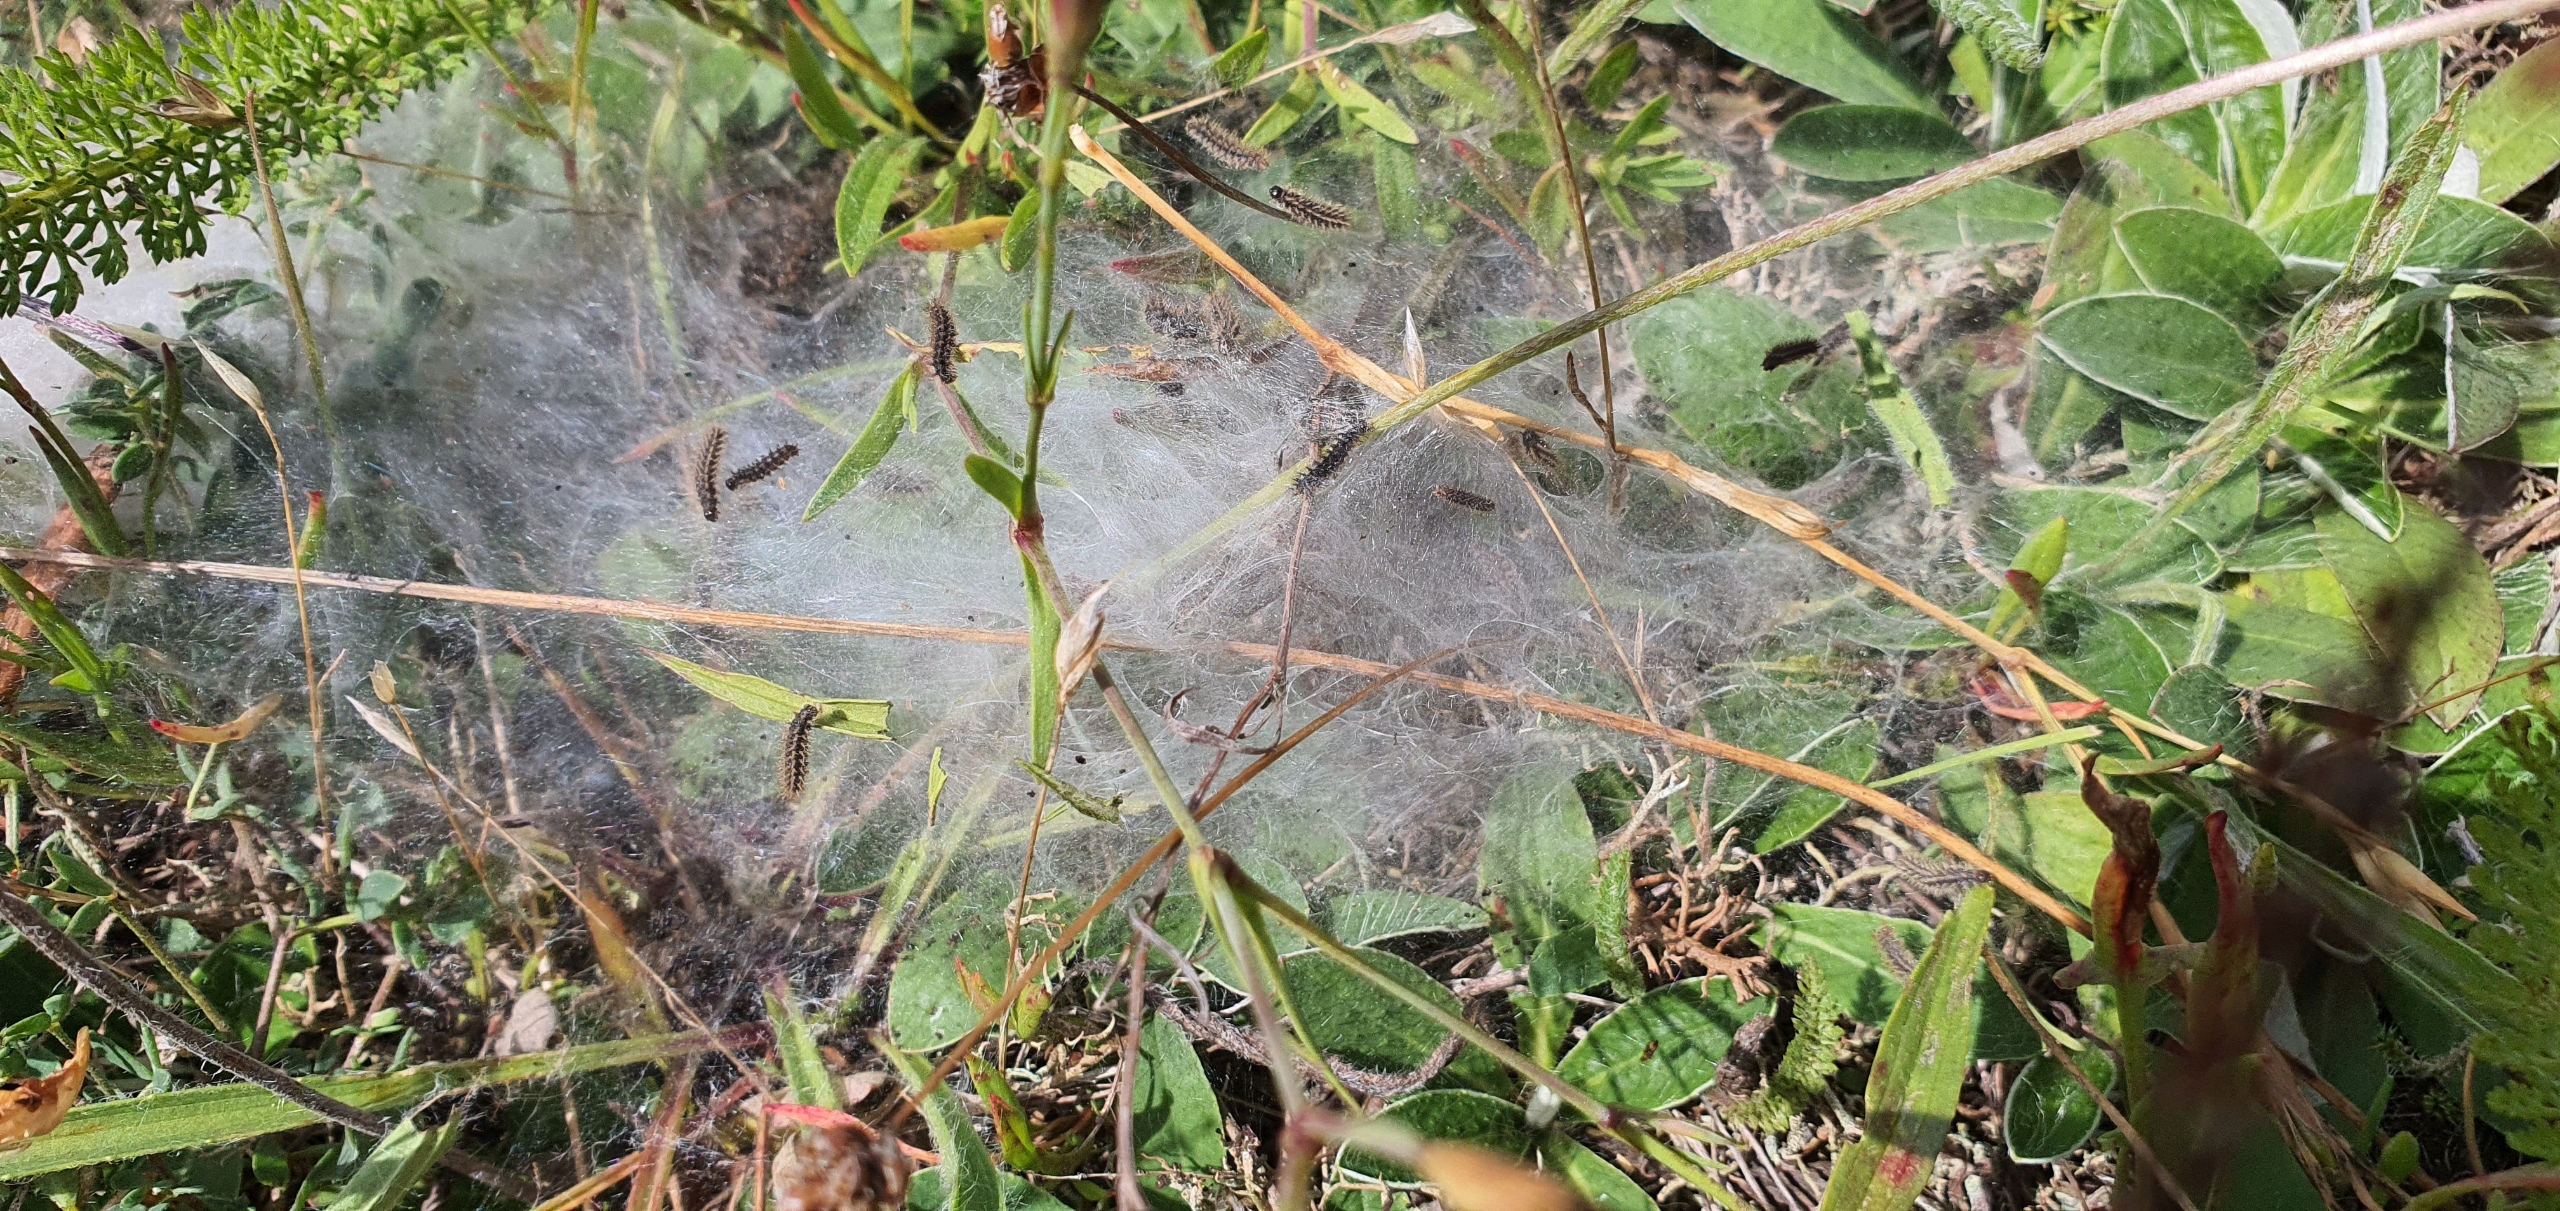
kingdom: Animalia
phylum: Arthropoda
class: Insecta
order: Lepidoptera
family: Nymphalidae
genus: Melitaea
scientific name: Melitaea cinxia
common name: Okkergul pletvinge
